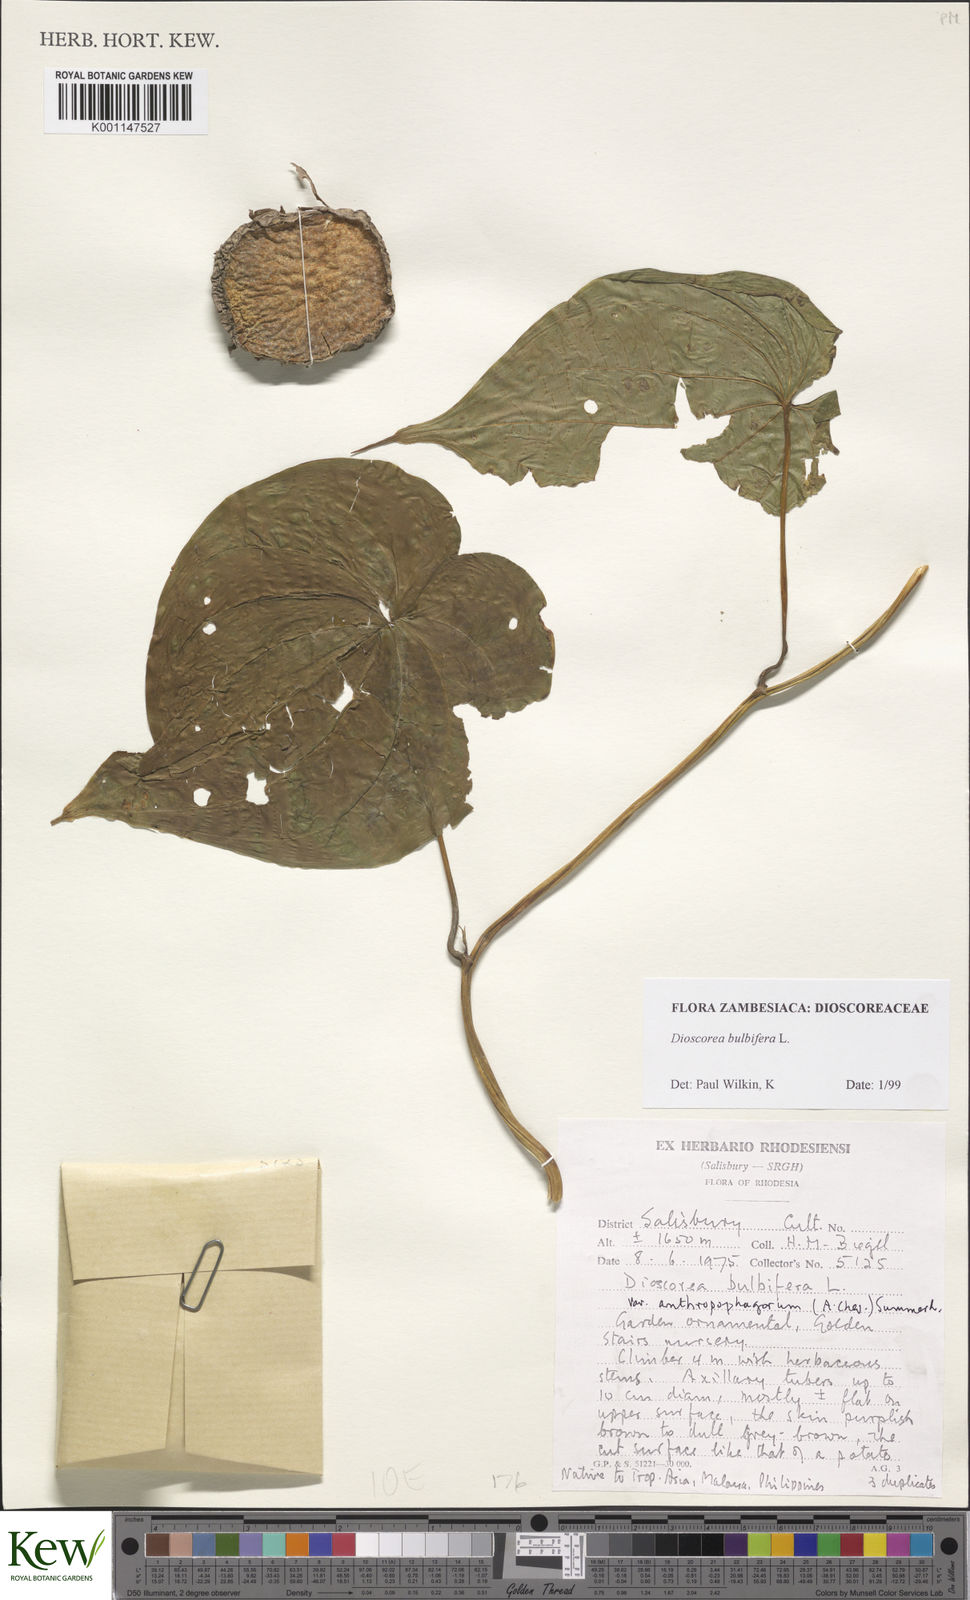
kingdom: Plantae
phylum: Tracheophyta
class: Liliopsida
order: Dioscoreales
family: Dioscoreaceae
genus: Dioscorea
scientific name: Dioscorea bulbifera
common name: Air yam
